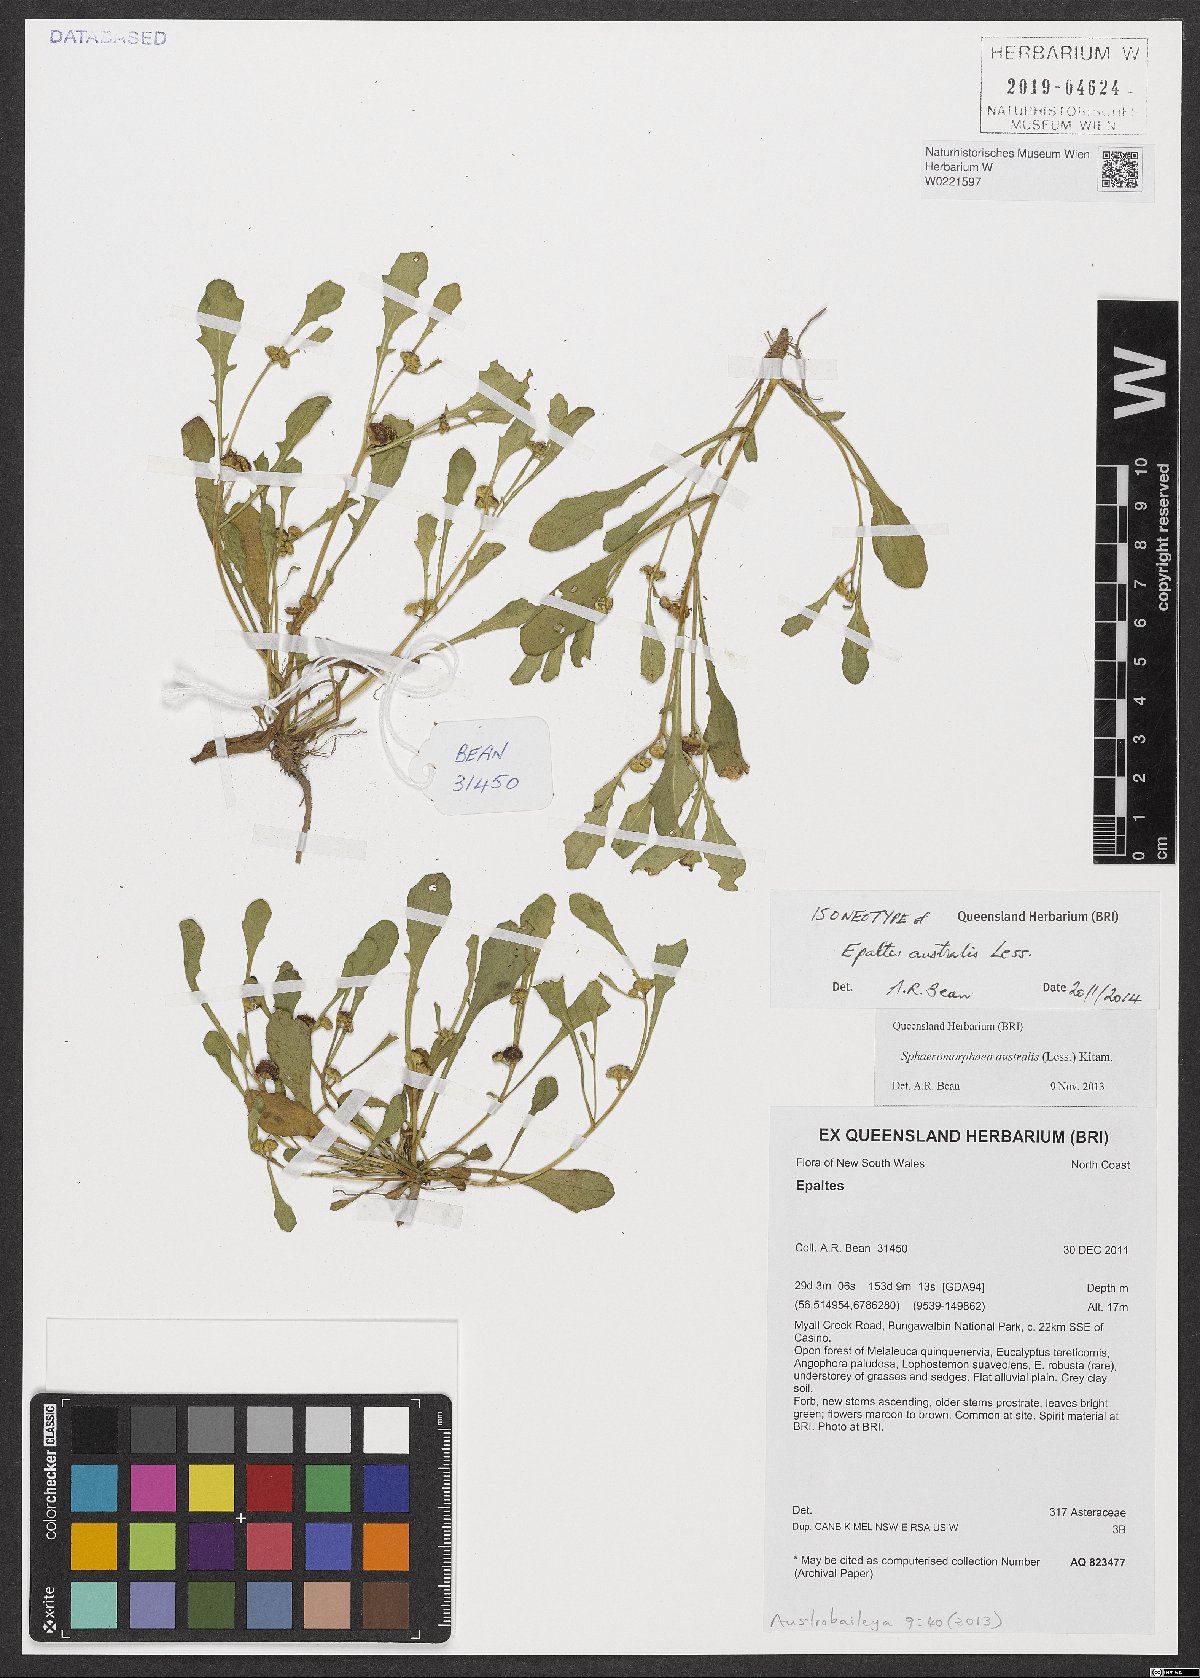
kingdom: Plantae
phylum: Tracheophyta
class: Magnoliopsida
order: Asterales
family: Asteraceae
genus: Sphaeromorphaea
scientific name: Sphaeromorphaea australis
